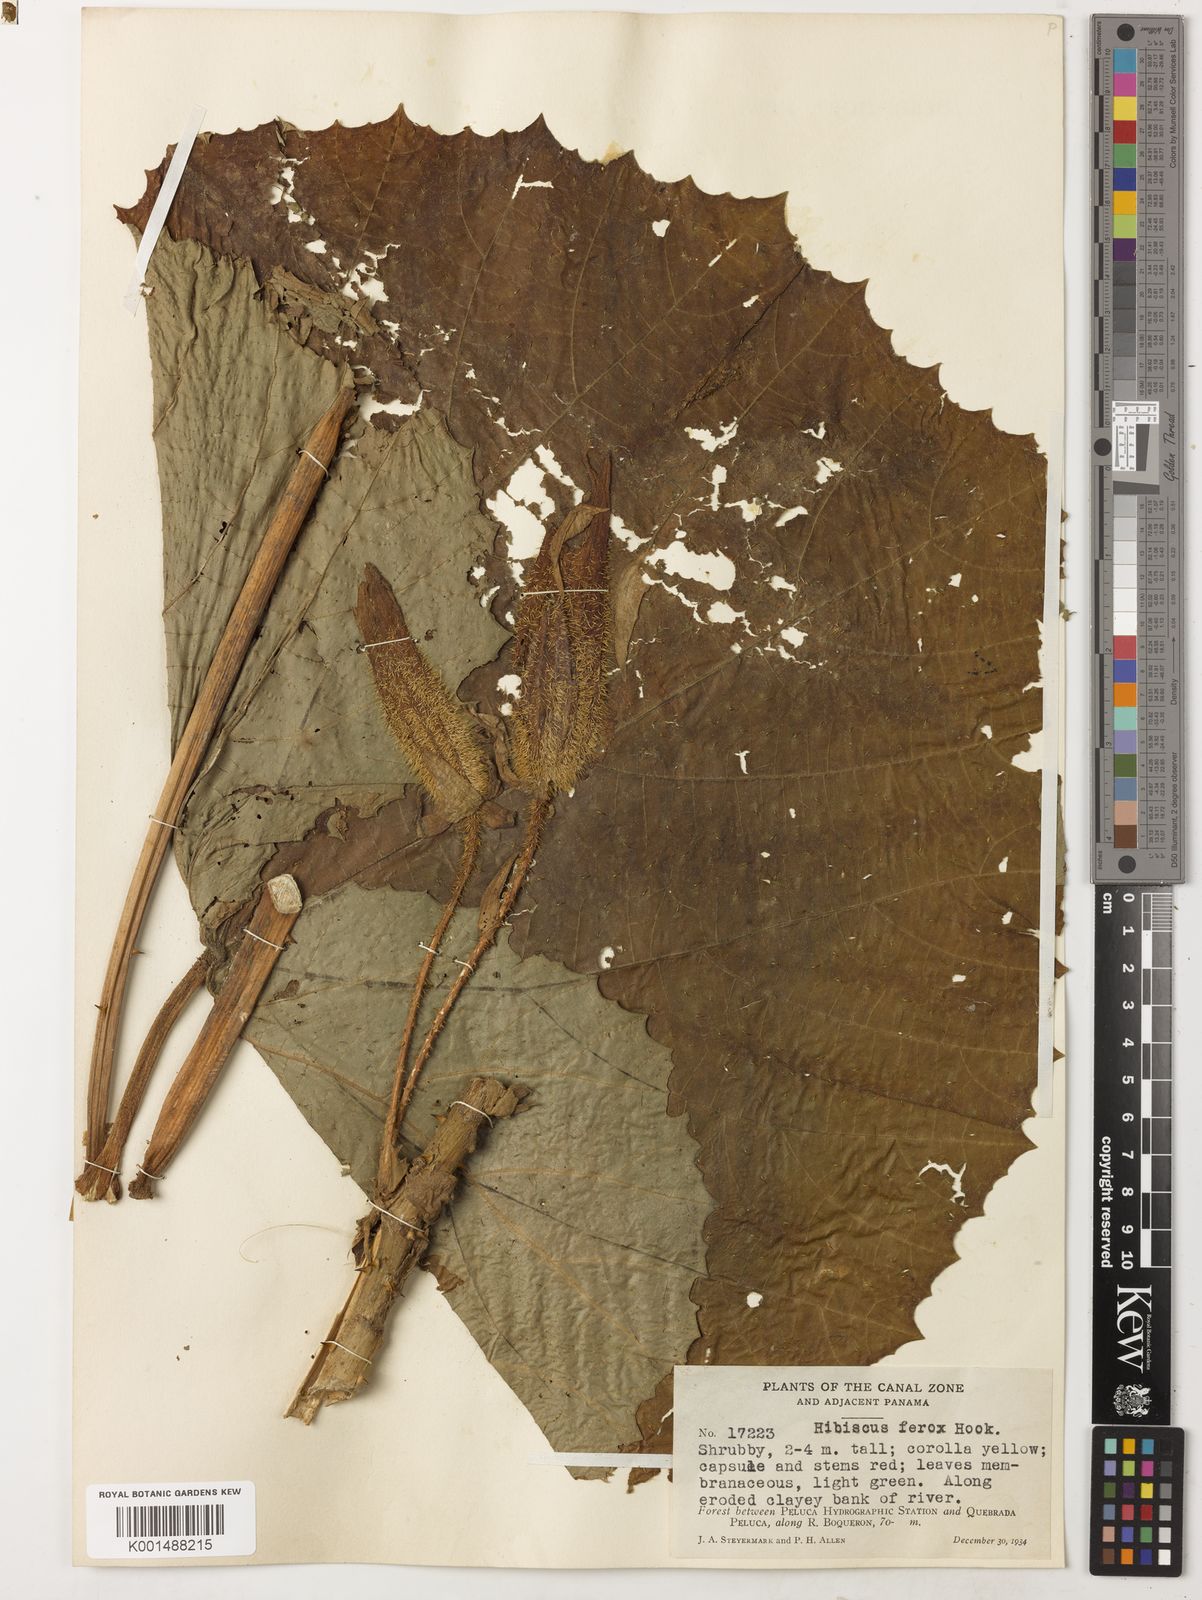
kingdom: Plantae
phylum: Tracheophyta
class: Magnoliopsida
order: Malvales
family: Malvaceae
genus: Wercklea
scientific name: Wercklea ferox
